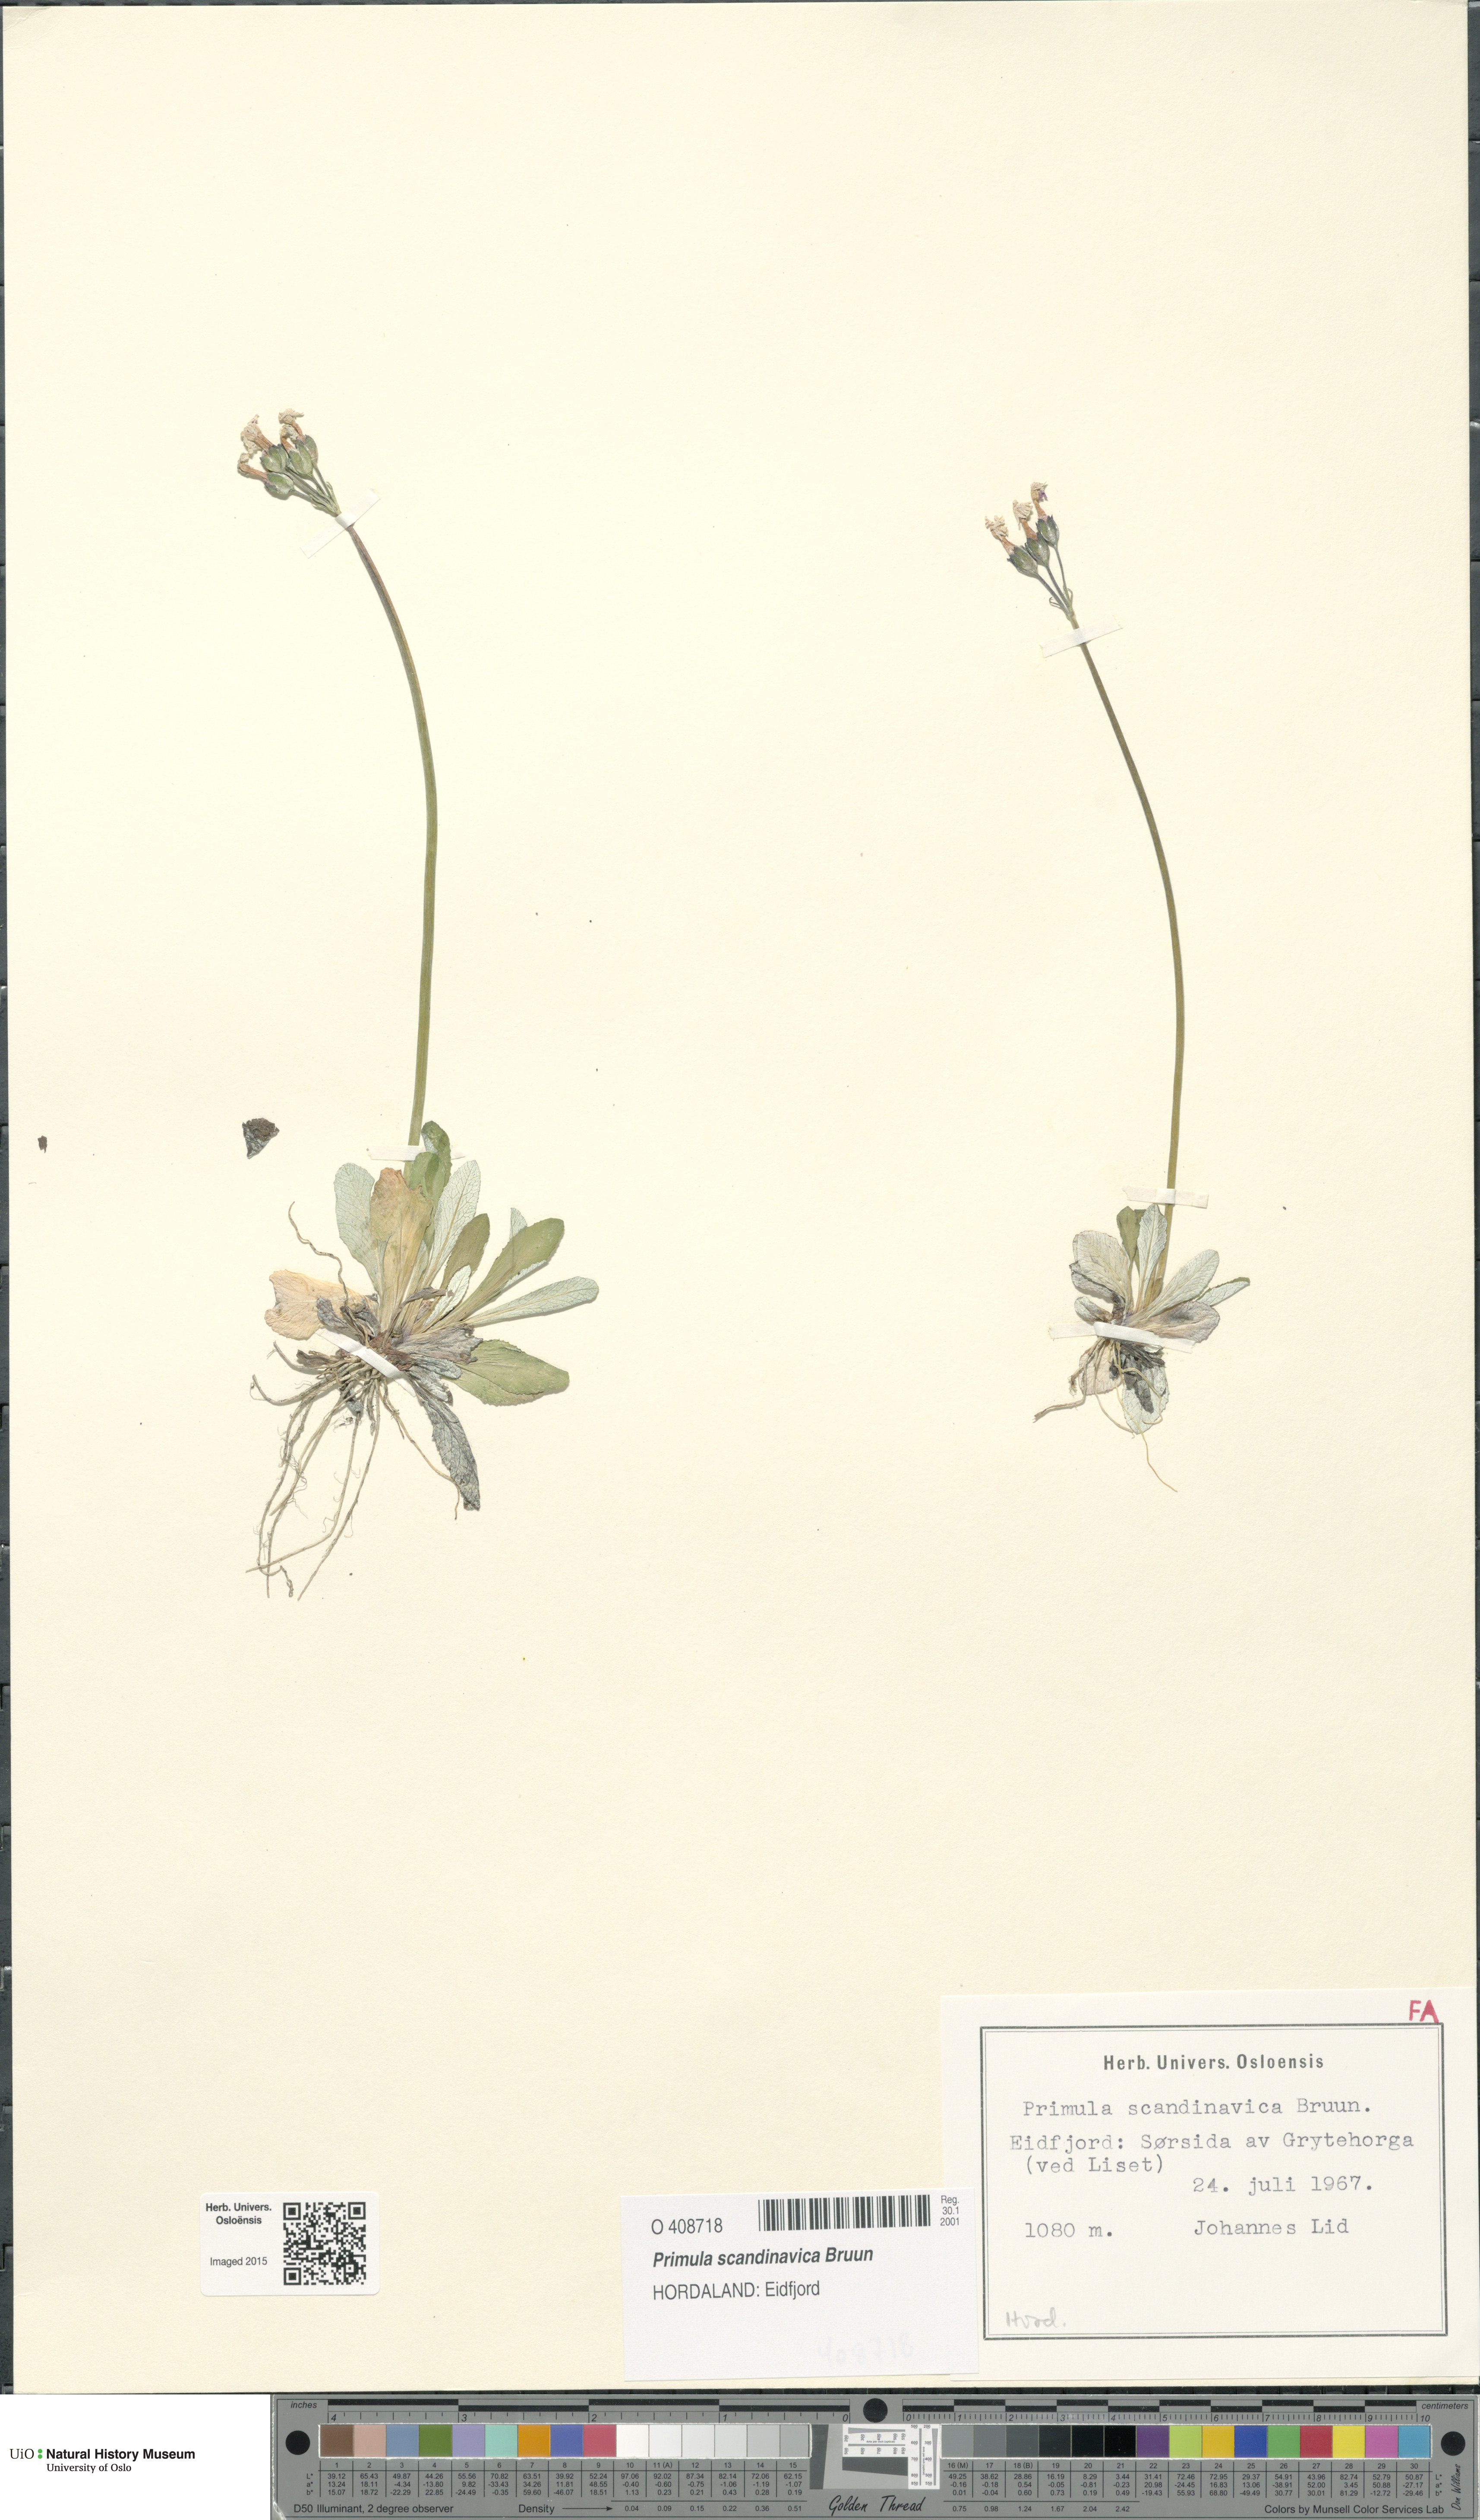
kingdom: Plantae
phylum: Tracheophyta
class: Magnoliopsida
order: Ericales
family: Primulaceae
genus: Primula
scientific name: Primula scandinavica
